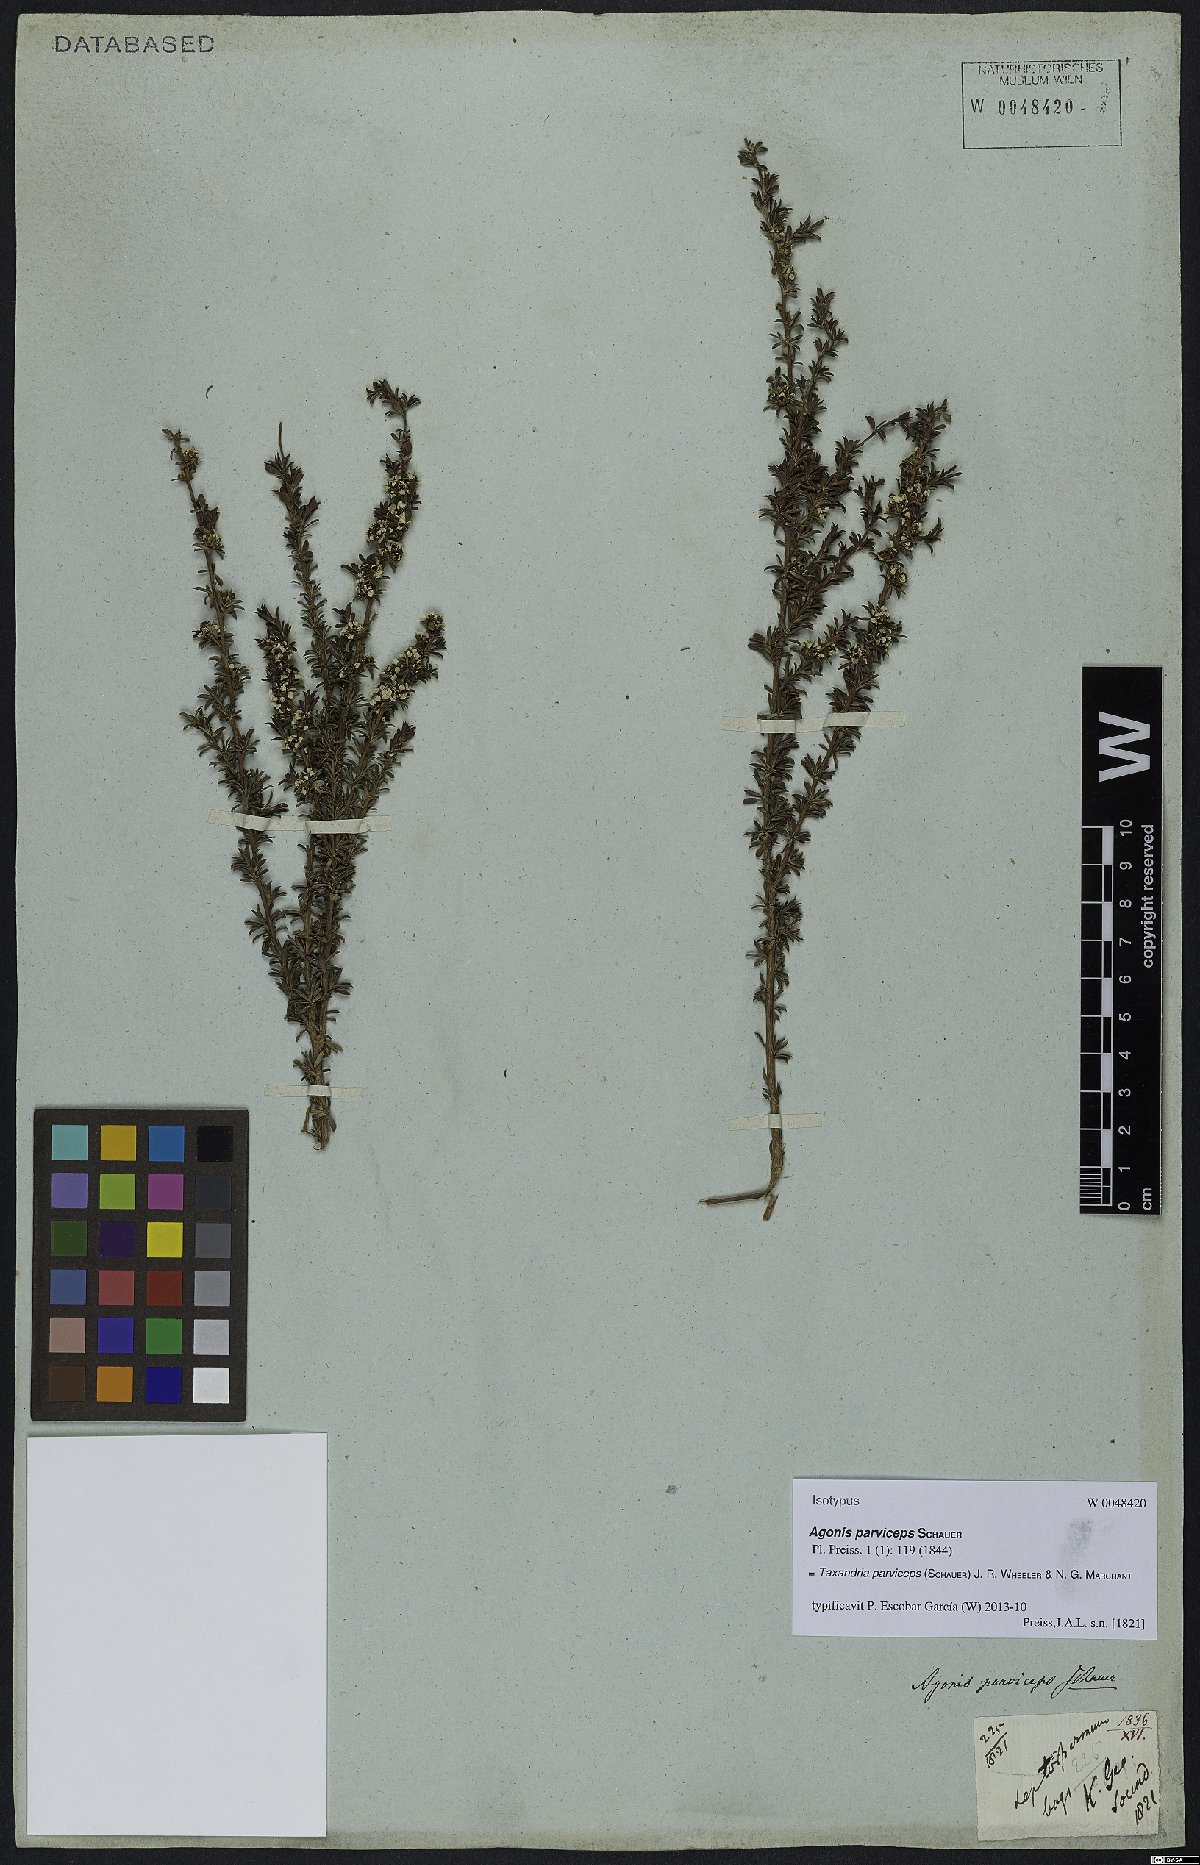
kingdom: Plantae
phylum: Tracheophyta
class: Magnoliopsida
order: Myrtales
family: Myrtaceae
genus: Taxandria
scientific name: Taxandria parviceps
